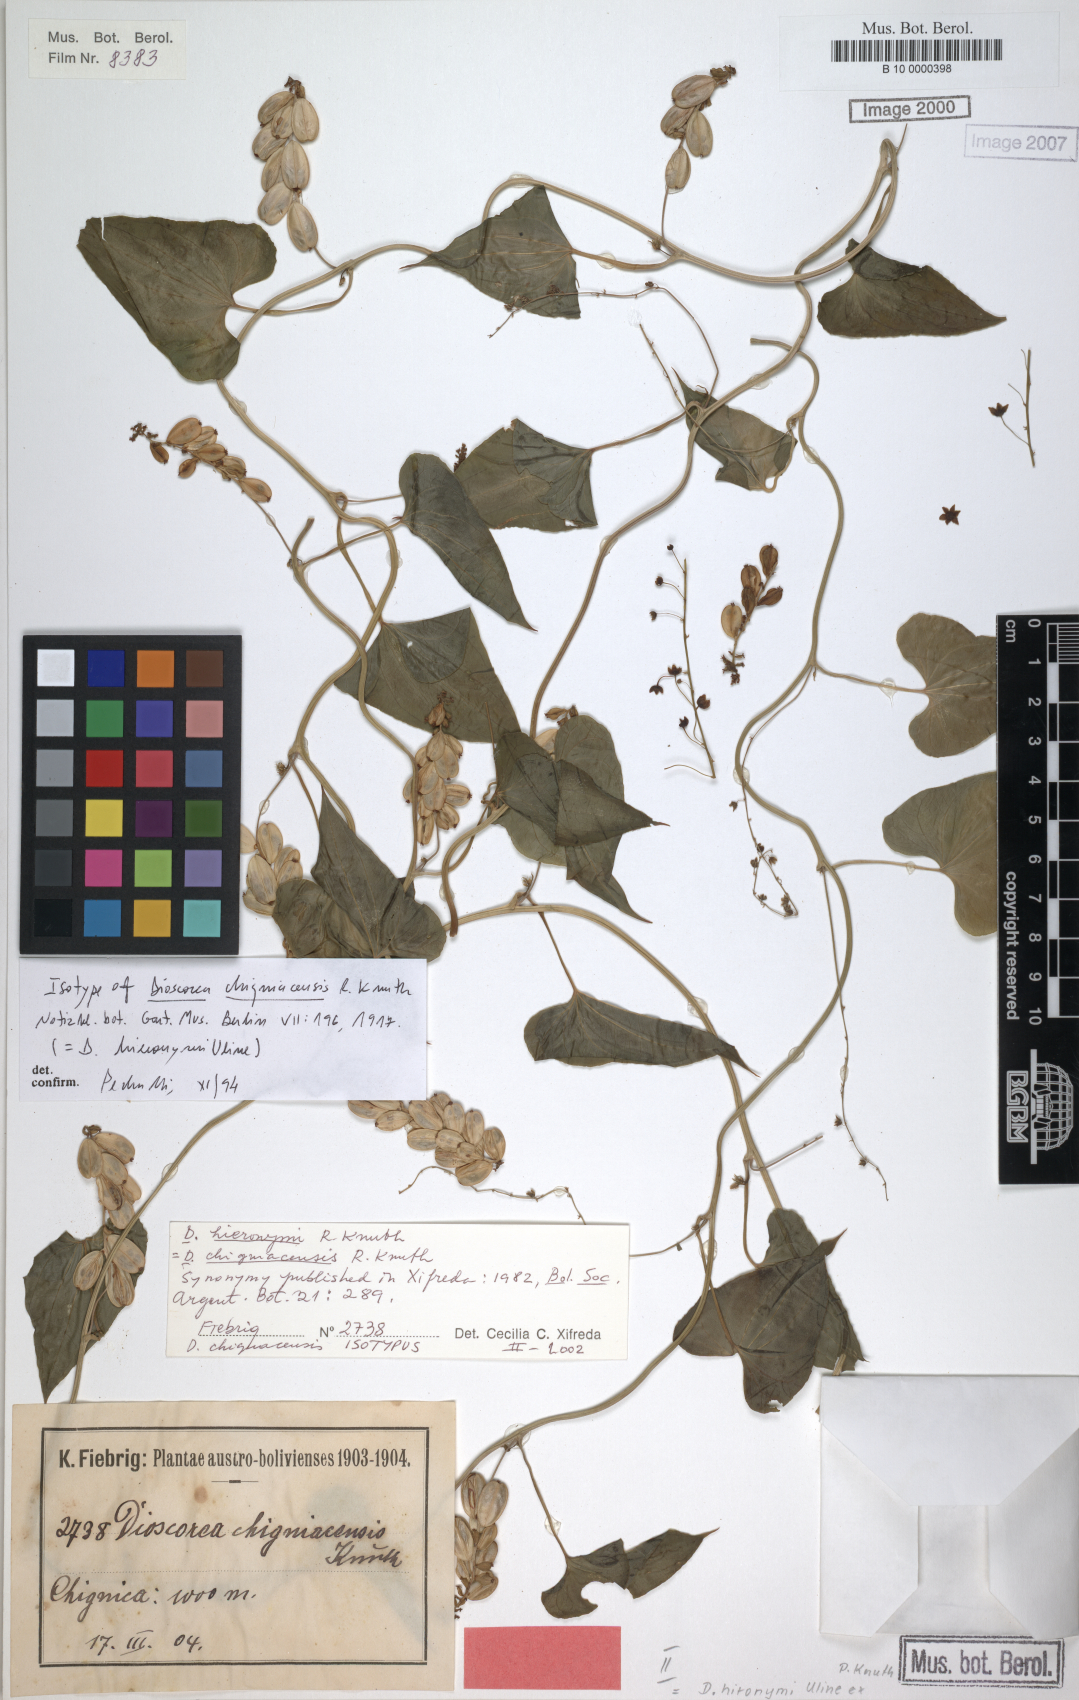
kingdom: Plantae
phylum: Tracheophyta
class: Liliopsida
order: Dioscoreales
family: Dioscoreaceae
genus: Dioscorea
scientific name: Dioscorea hieronymi
